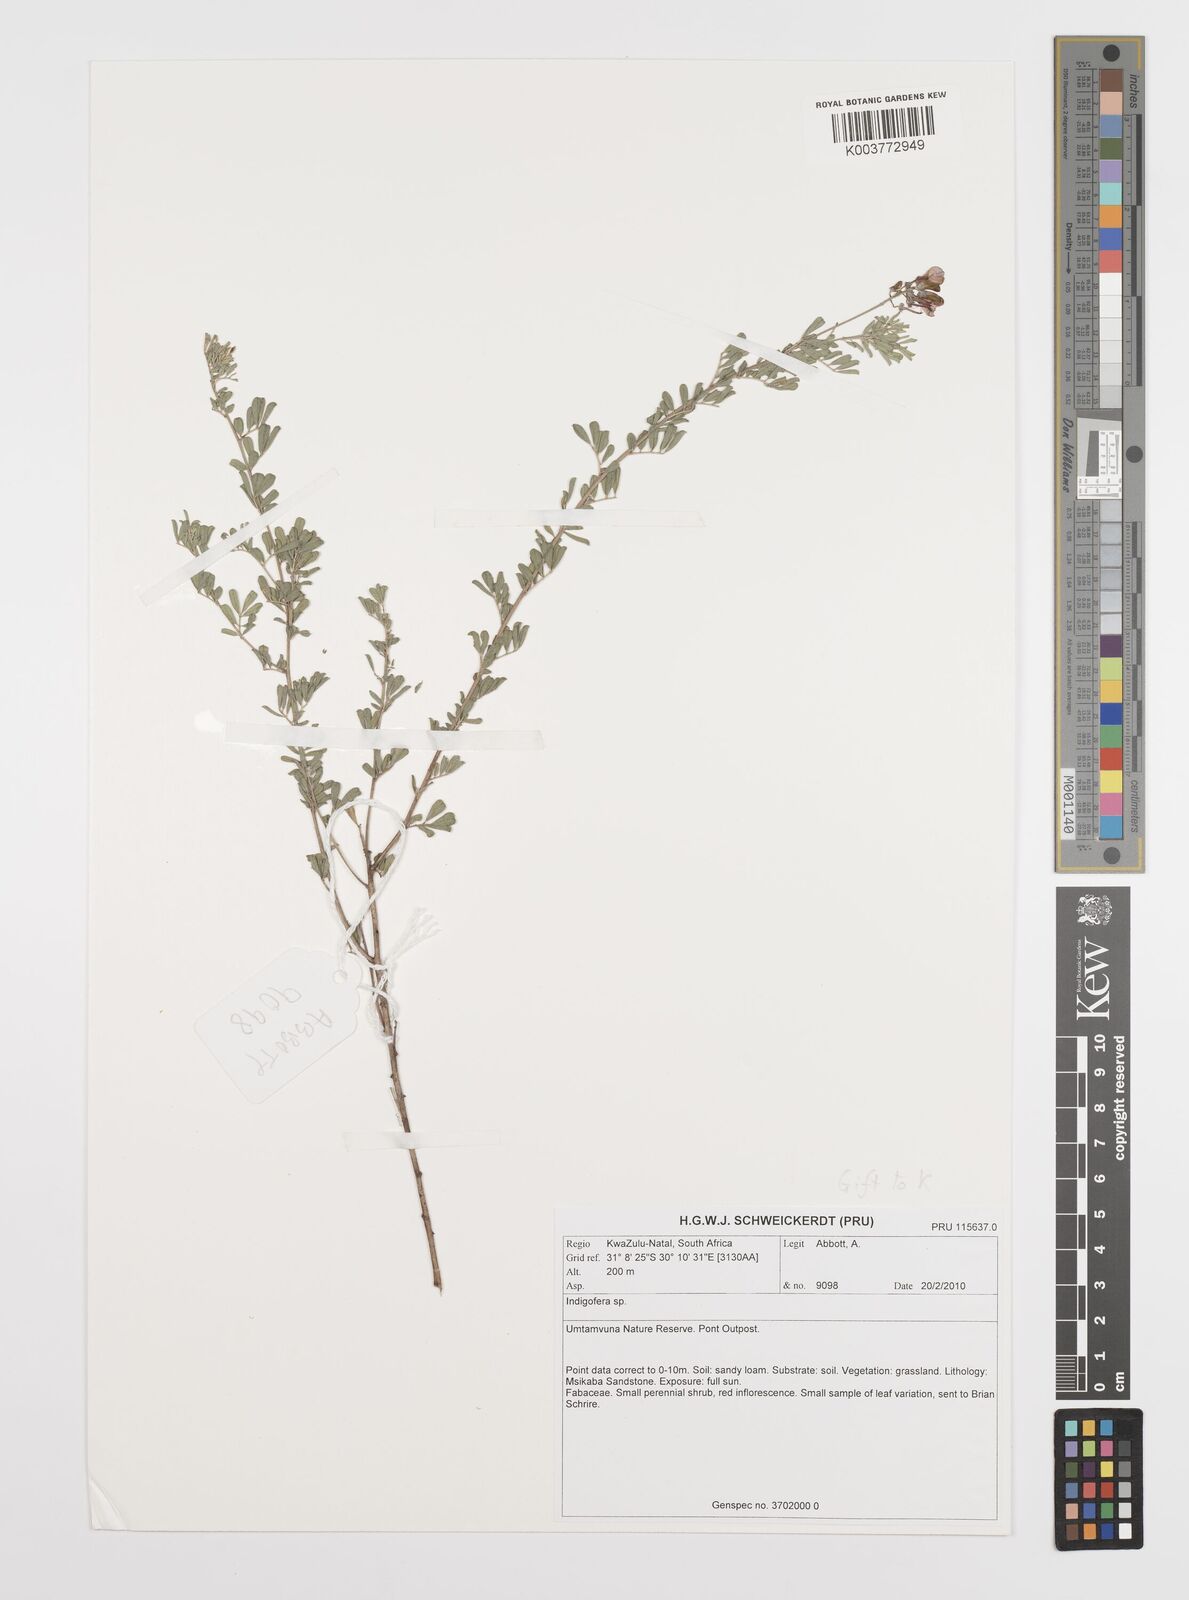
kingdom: Plantae
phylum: Tracheophyta
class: Magnoliopsida
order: Fabales
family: Fabaceae
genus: Indigofera
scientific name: Indigofera
